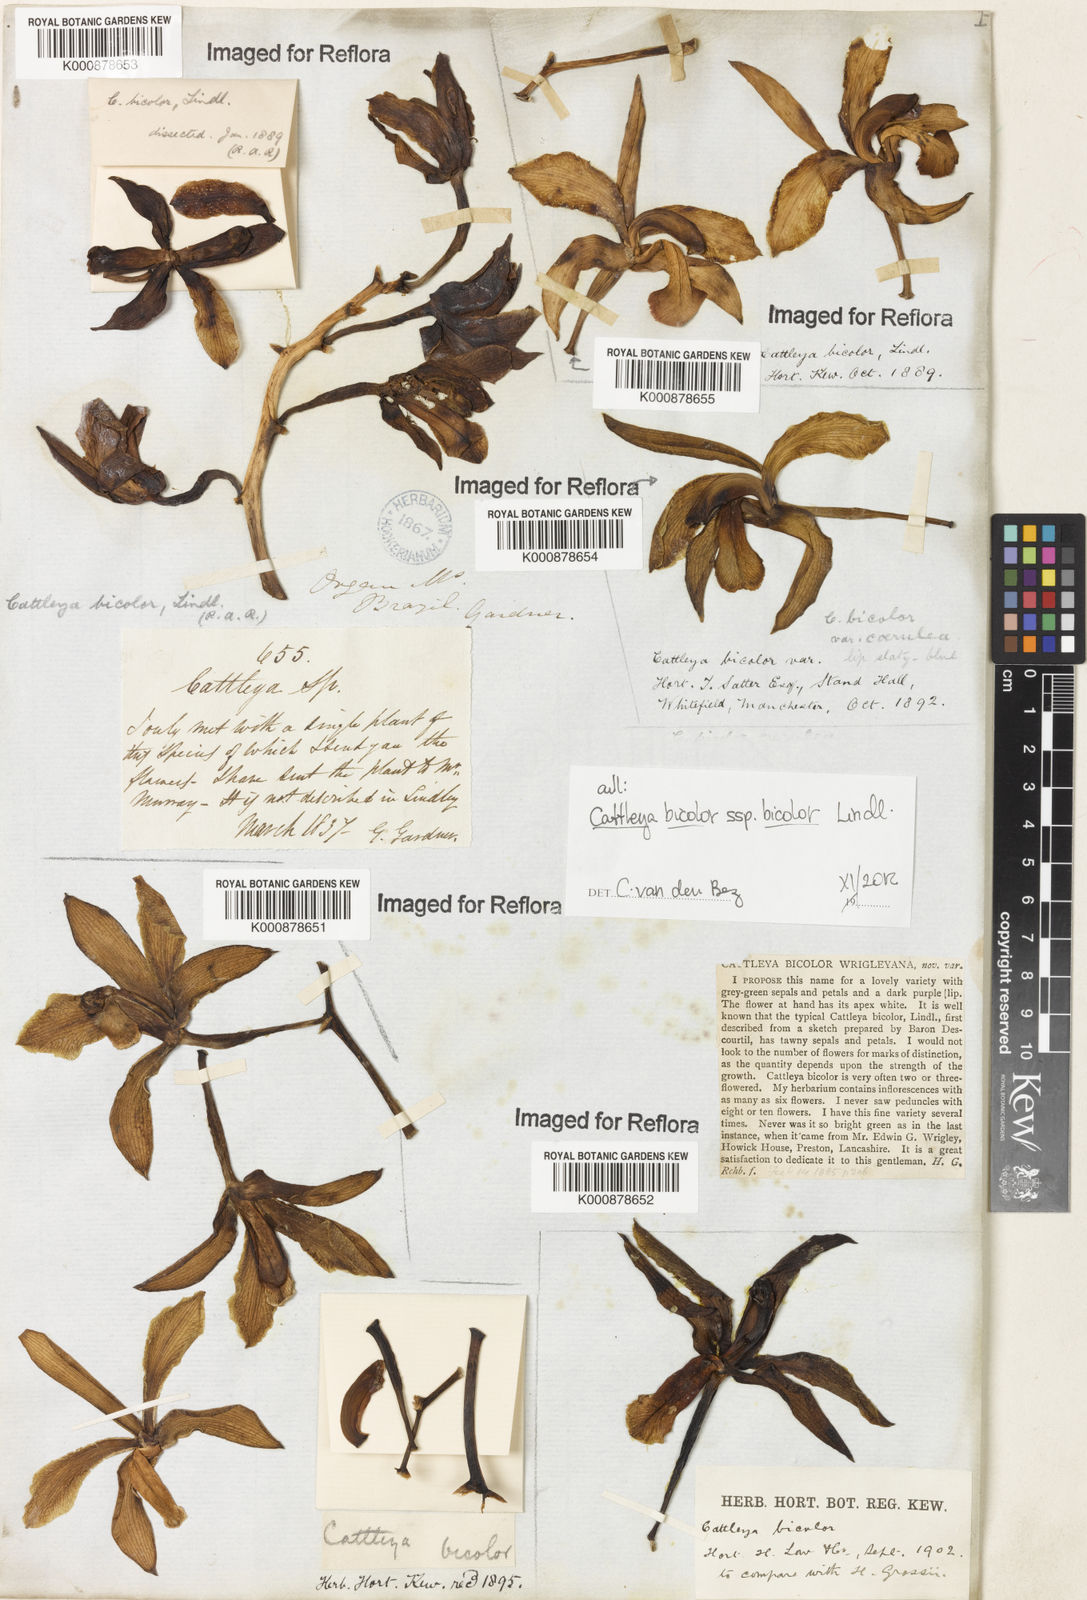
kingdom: Plantae
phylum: Tracheophyta
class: Liliopsida
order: Asparagales
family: Orchidaceae
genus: Cattleya
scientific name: Cattleya bicolor
